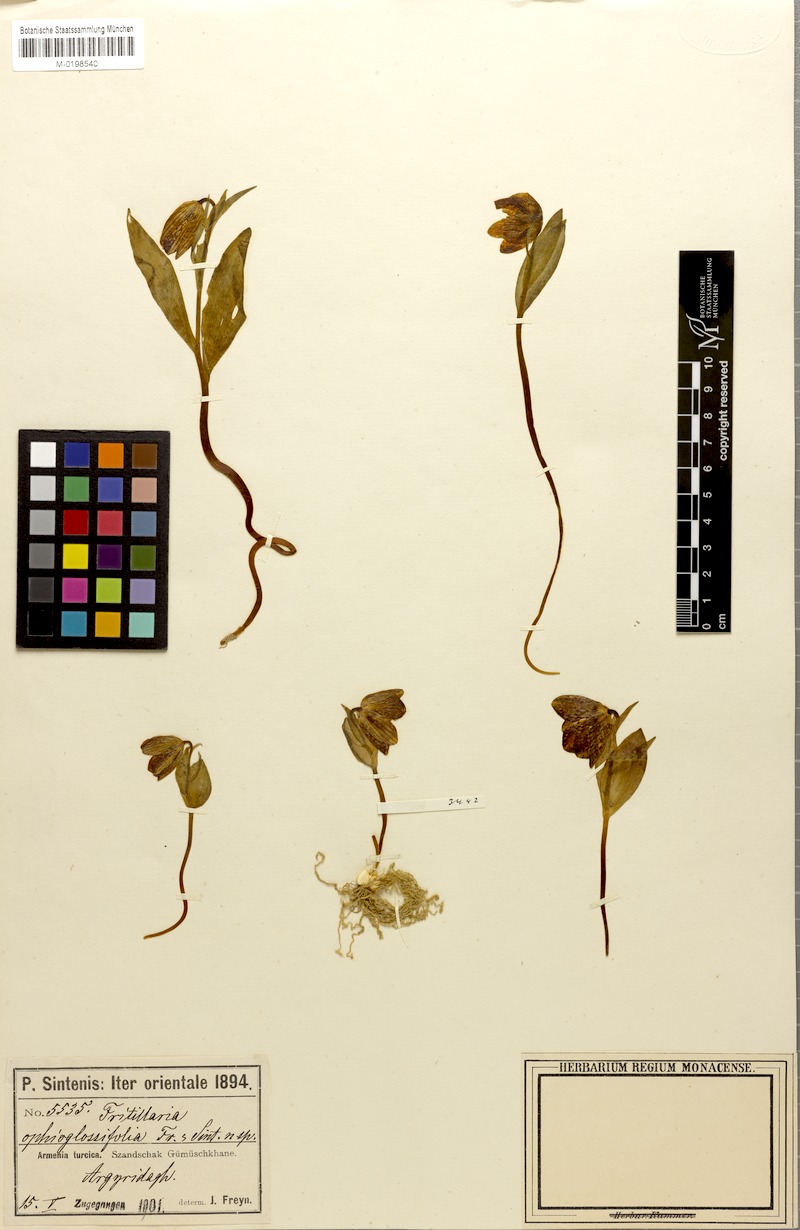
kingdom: Plantae
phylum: Tracheophyta
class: Liliopsida
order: Liliales
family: Liliaceae
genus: Fritillaria
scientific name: Fritillaria crassifolia
